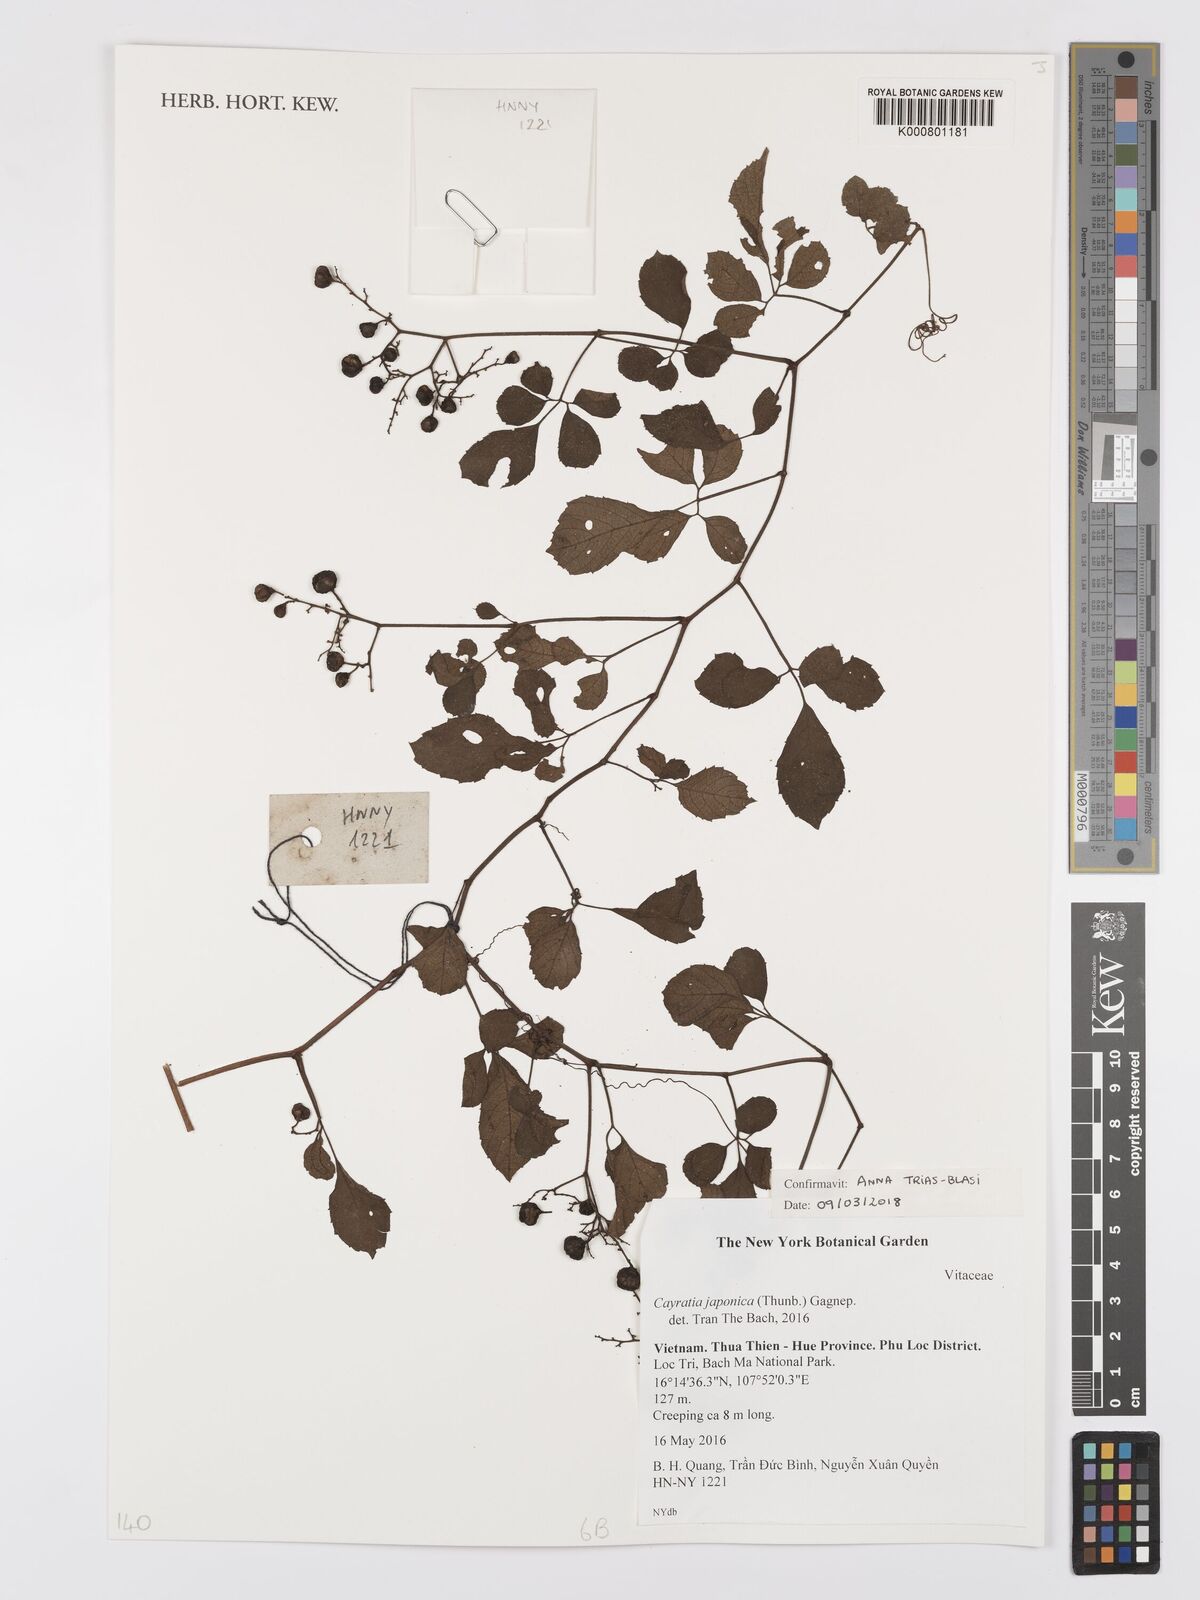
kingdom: Plantae
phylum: Tracheophyta
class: Magnoliopsida
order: Vitales
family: Vitaceae
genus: Causonis
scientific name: Causonis japonica
